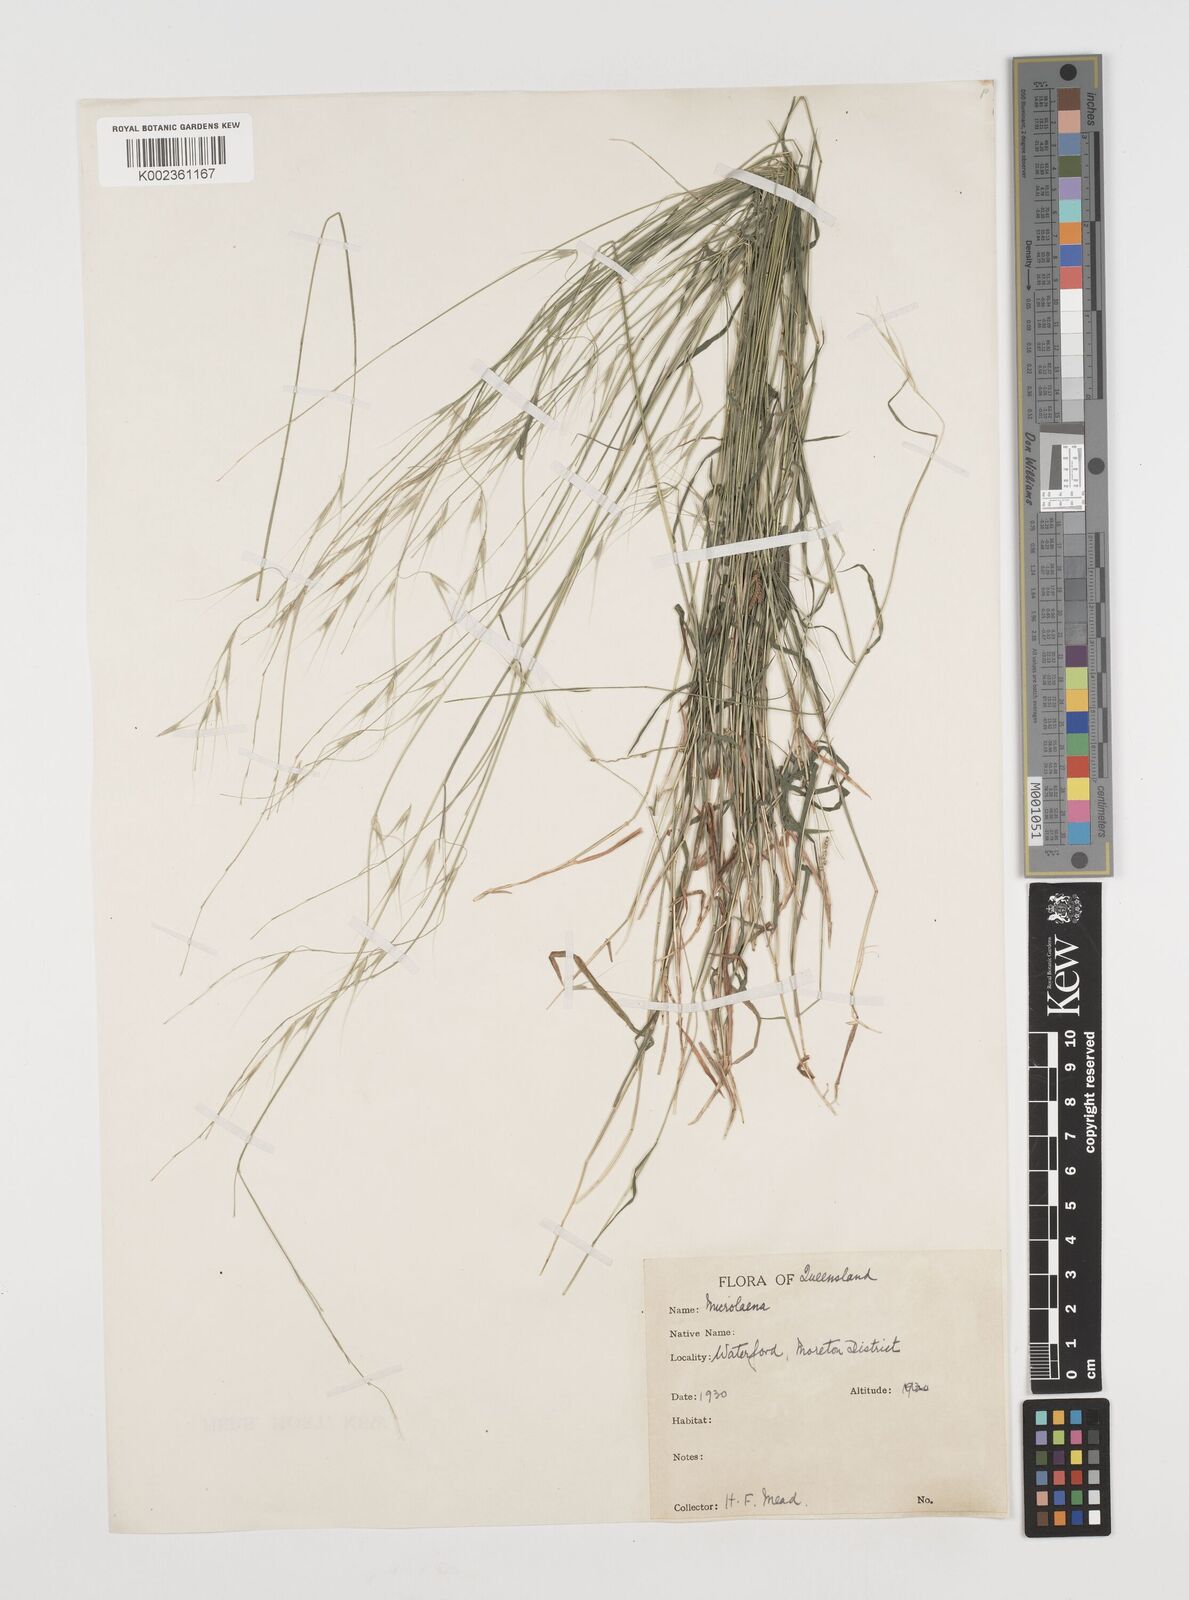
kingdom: Plantae
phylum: Tracheophyta
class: Liliopsida
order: Poales
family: Poaceae
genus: Microlaena
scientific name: Microlaena stipoides
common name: Meadow ricegrass
